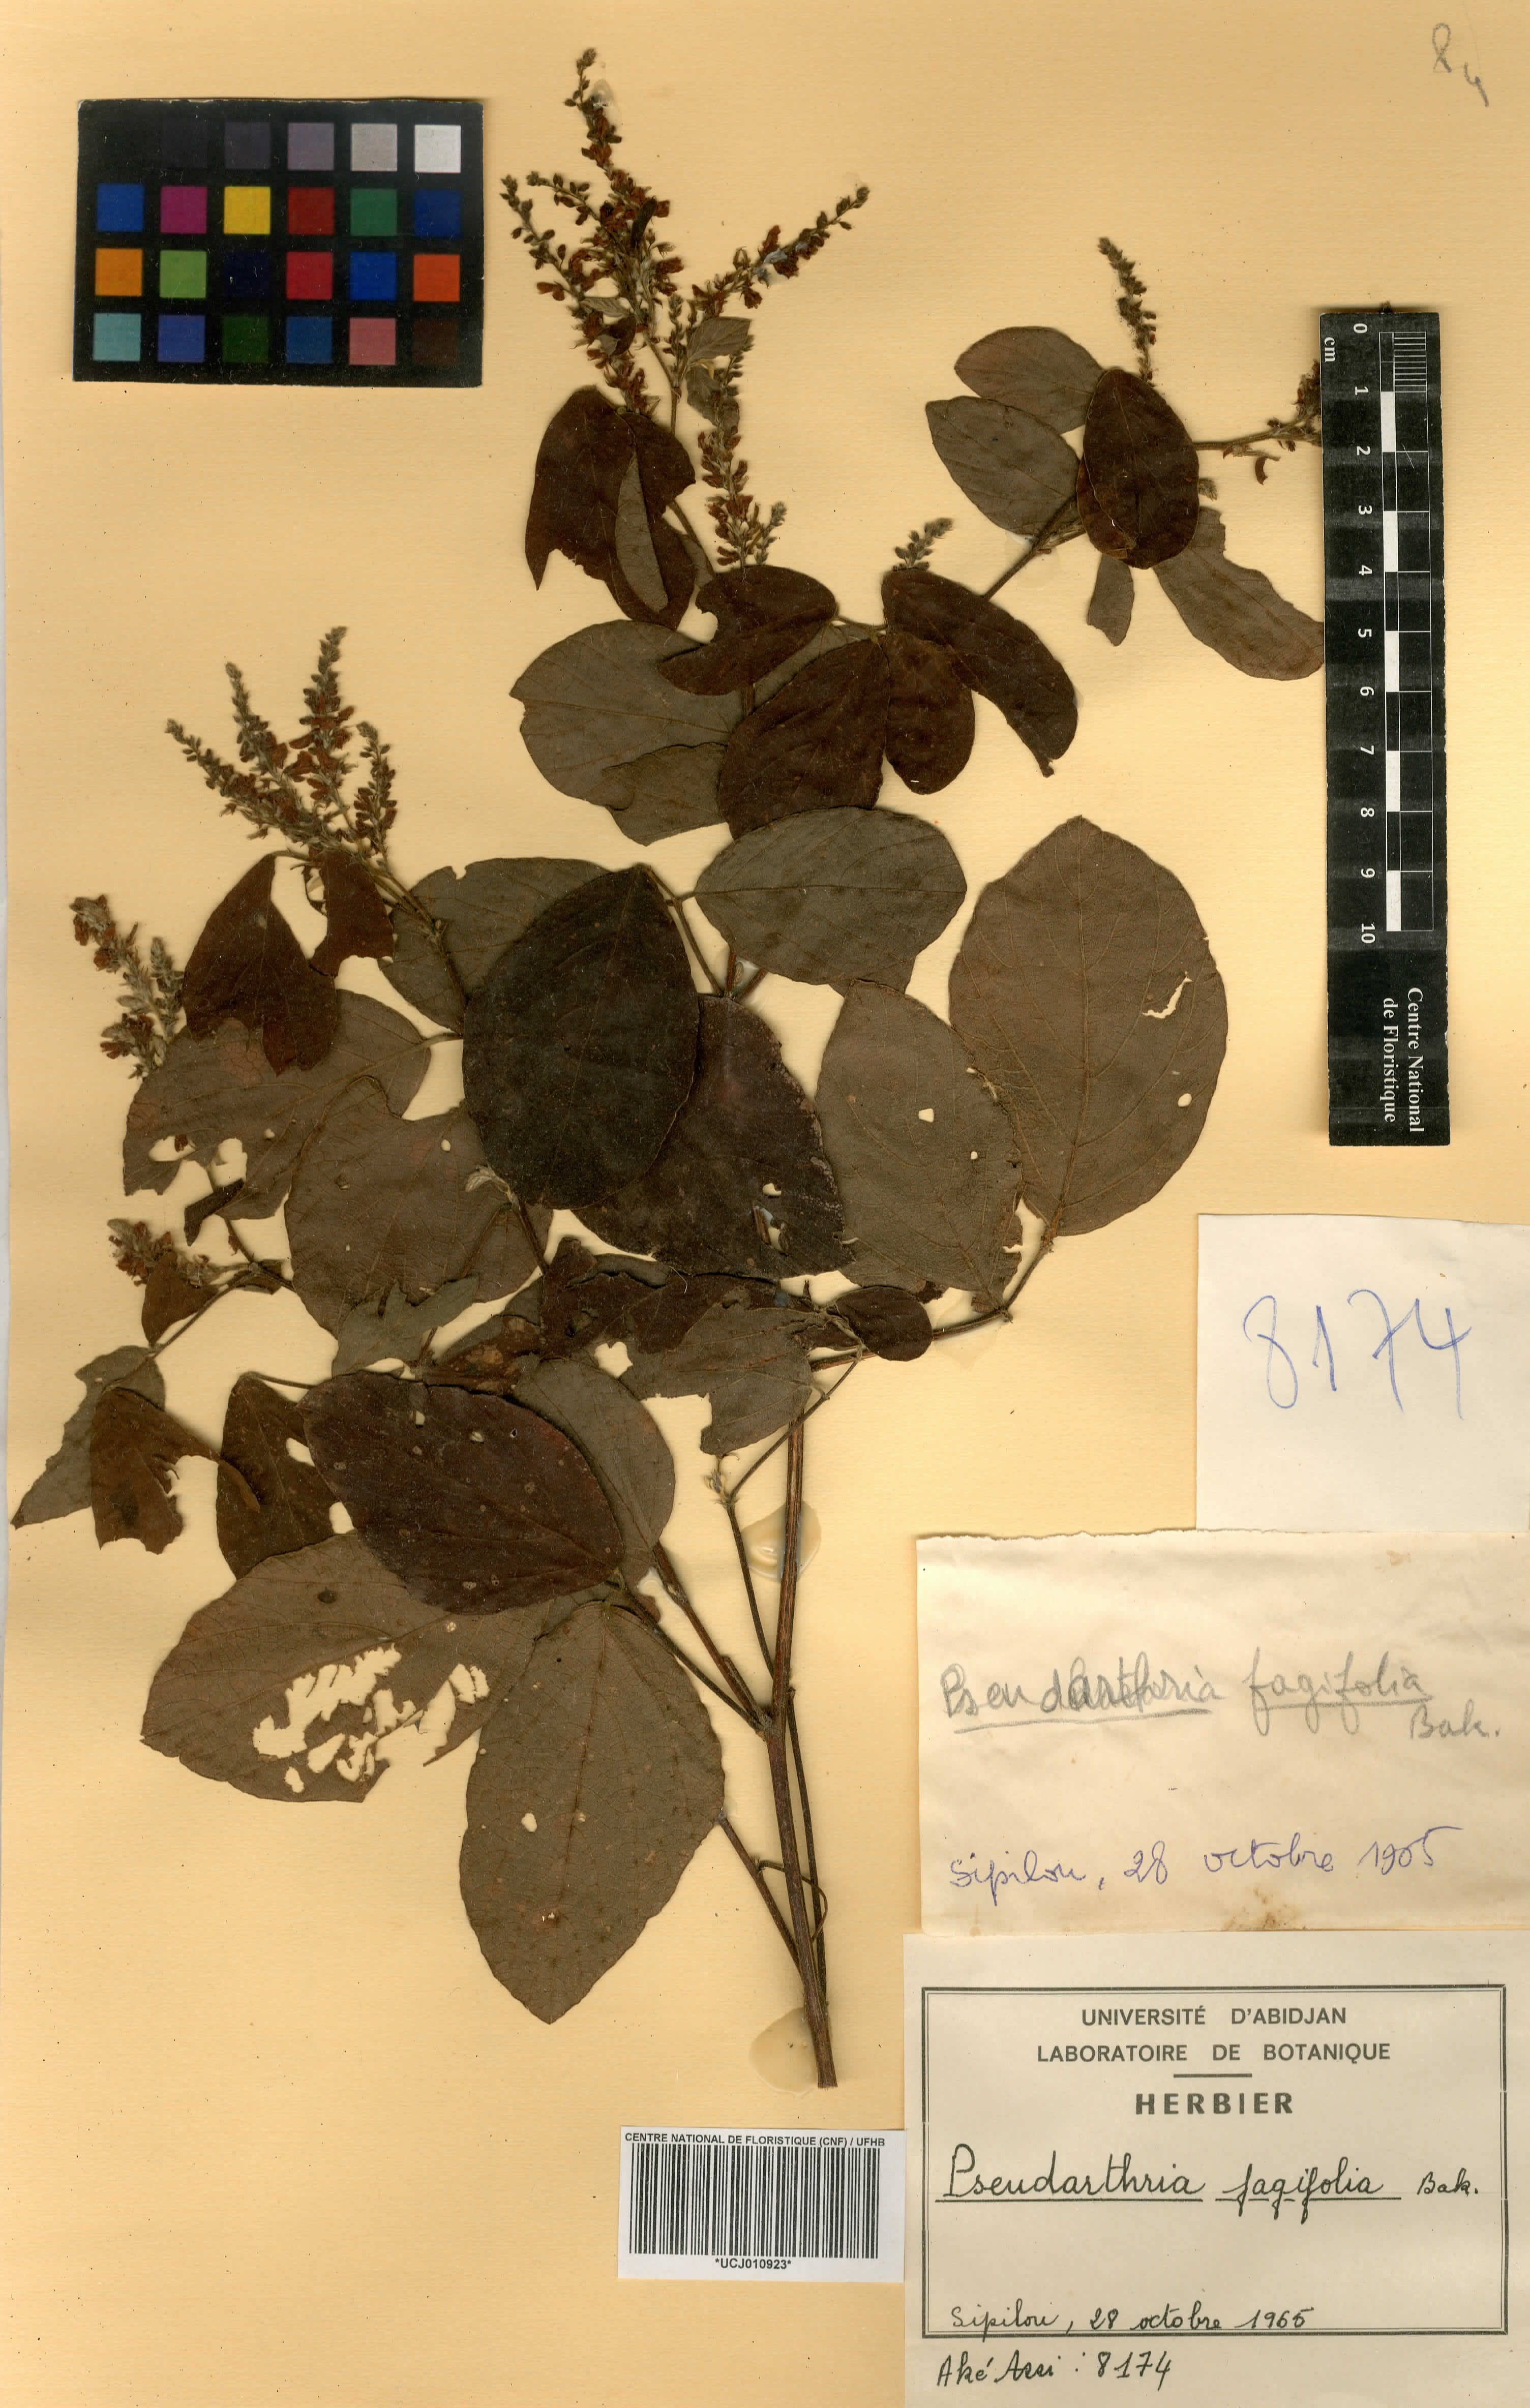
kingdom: Plantae
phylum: Tracheophyta
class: Magnoliopsida
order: Fabales
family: Fabaceae
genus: Pseudarthria
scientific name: Pseudarthria fagifolia
